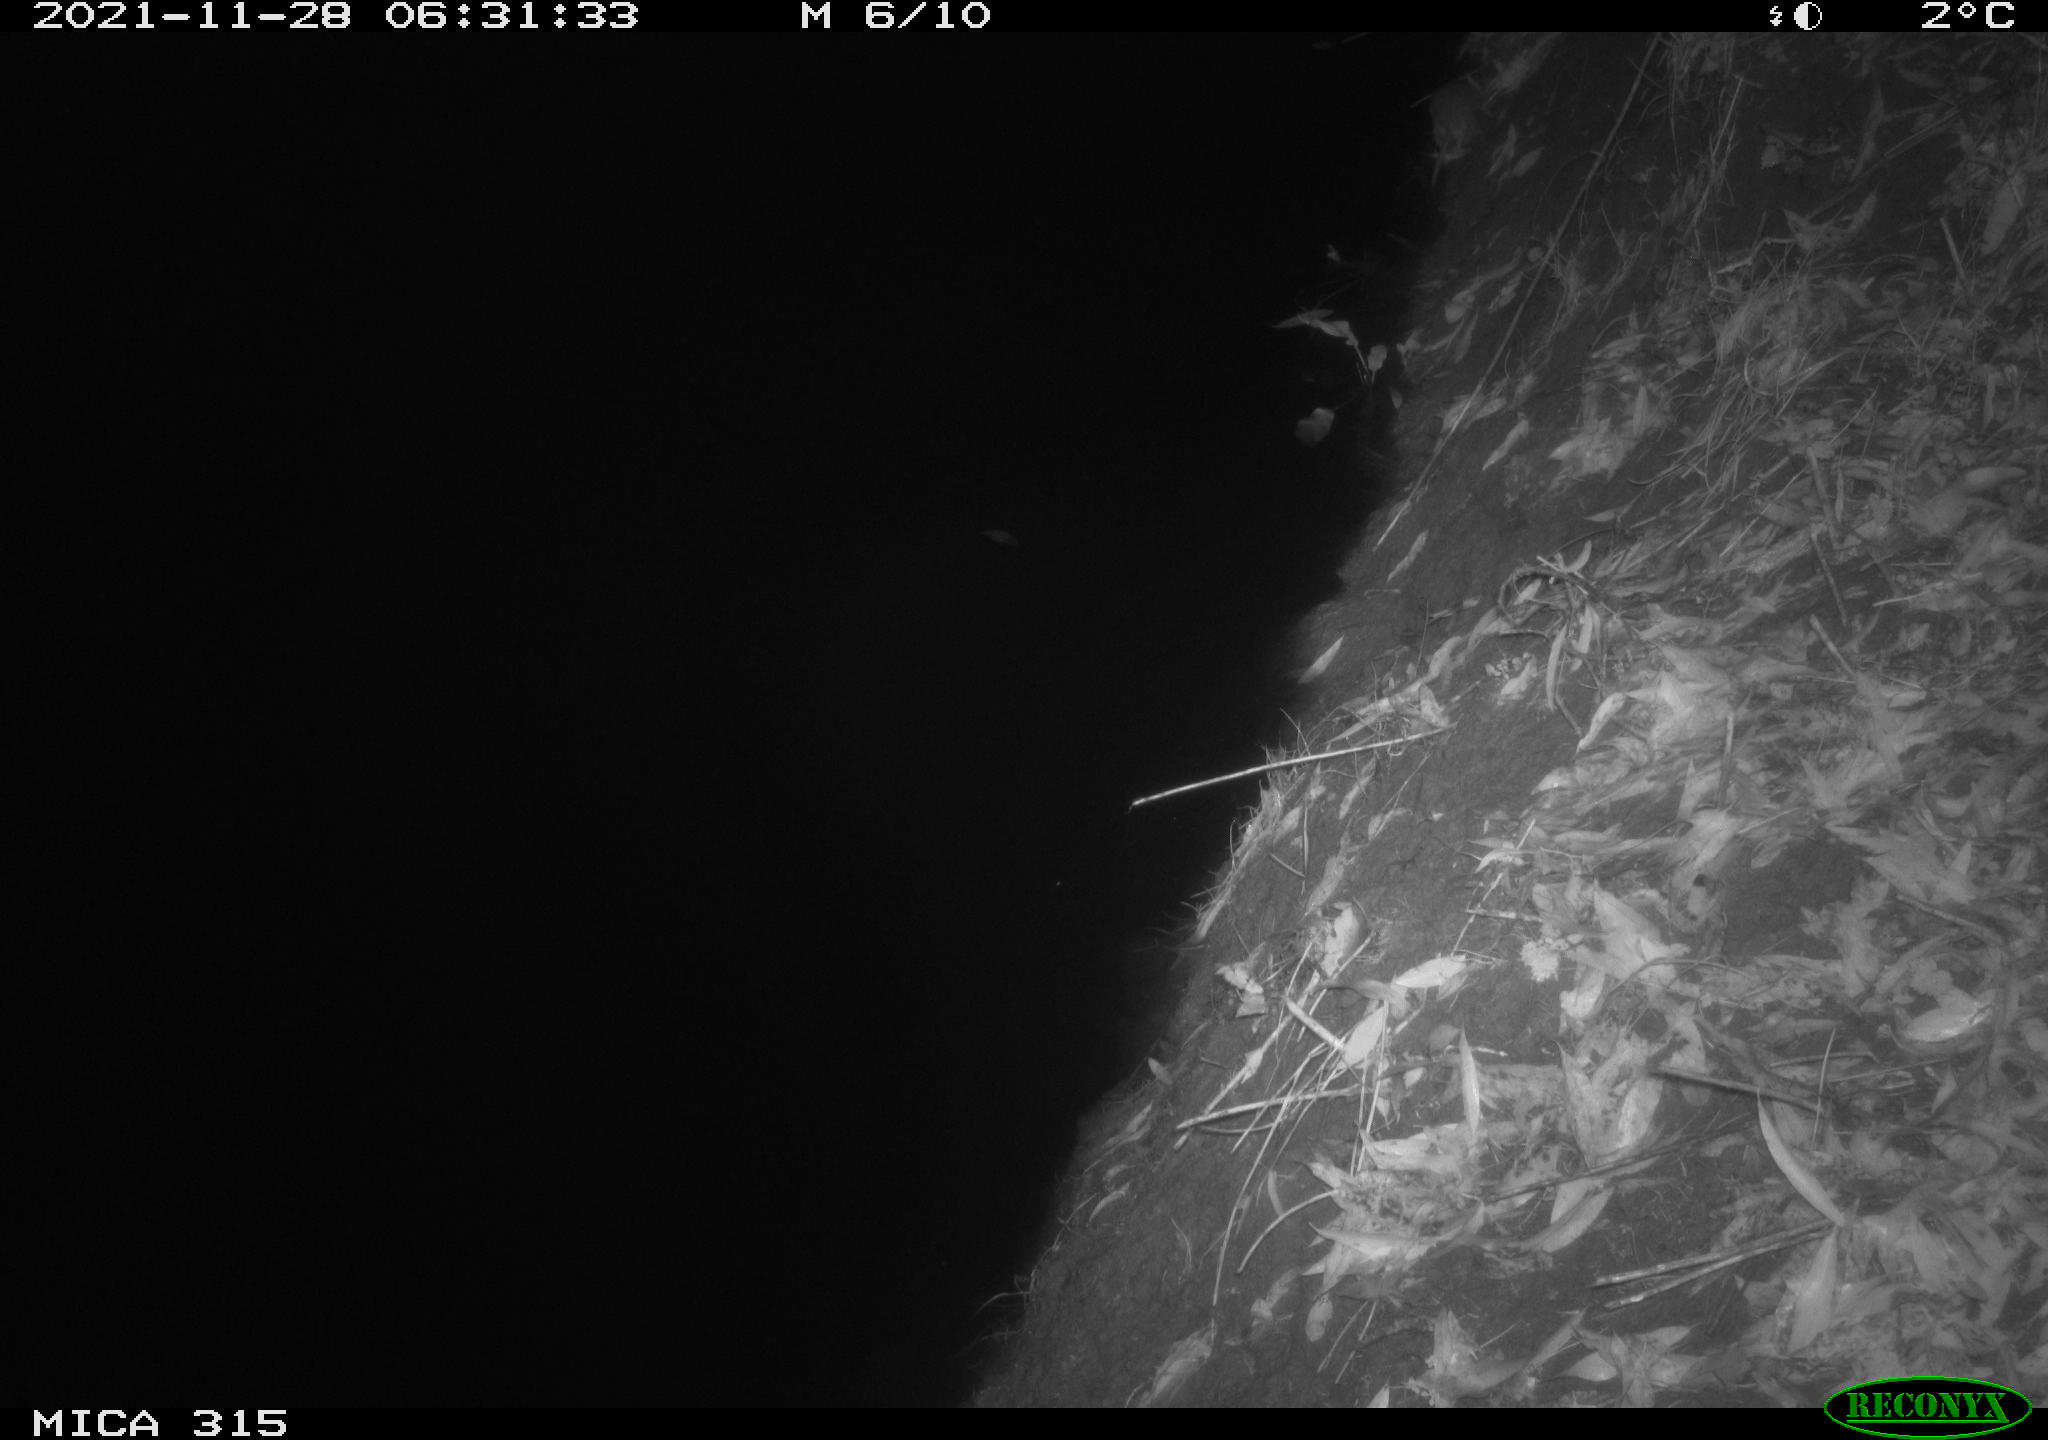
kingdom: Animalia
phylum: Chordata
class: Mammalia
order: Rodentia
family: Muridae
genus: Rattus
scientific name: Rattus norvegicus
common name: Brown rat
